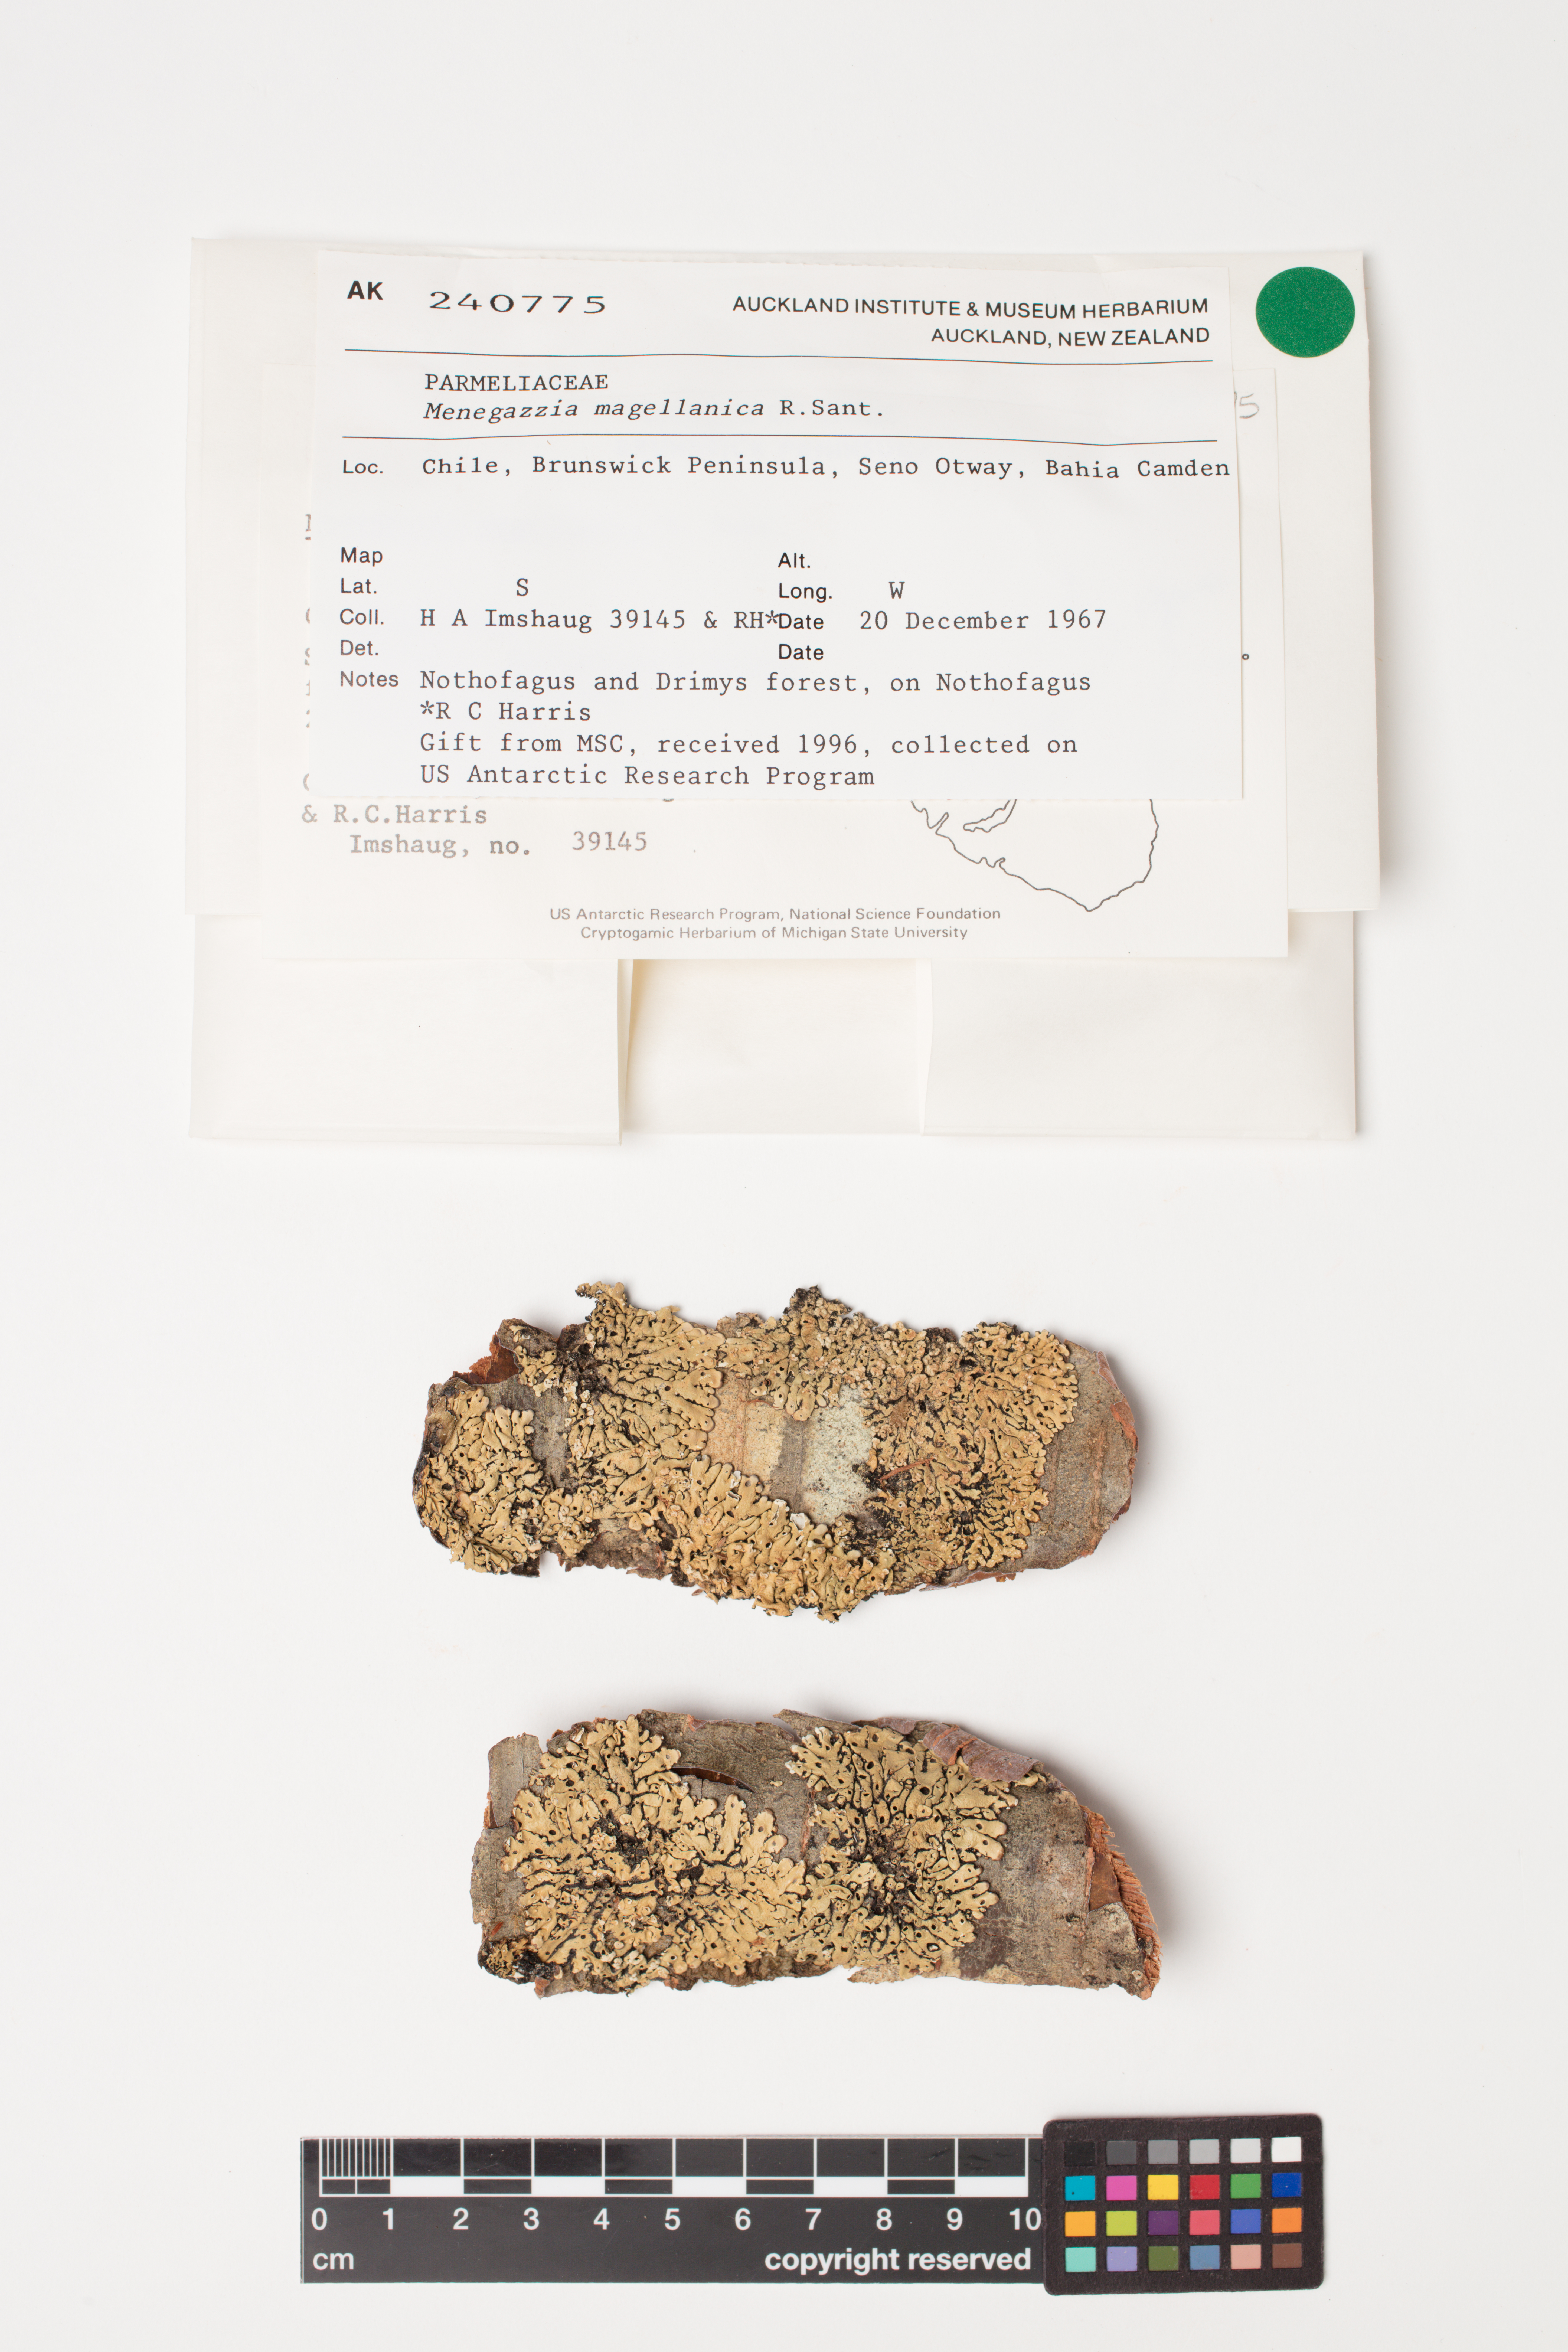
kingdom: Fungi
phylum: Ascomycota
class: Lecanoromycetes
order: Lecanorales
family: Parmeliaceae
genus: Menegazzia
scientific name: Menegazzia subpertusa
